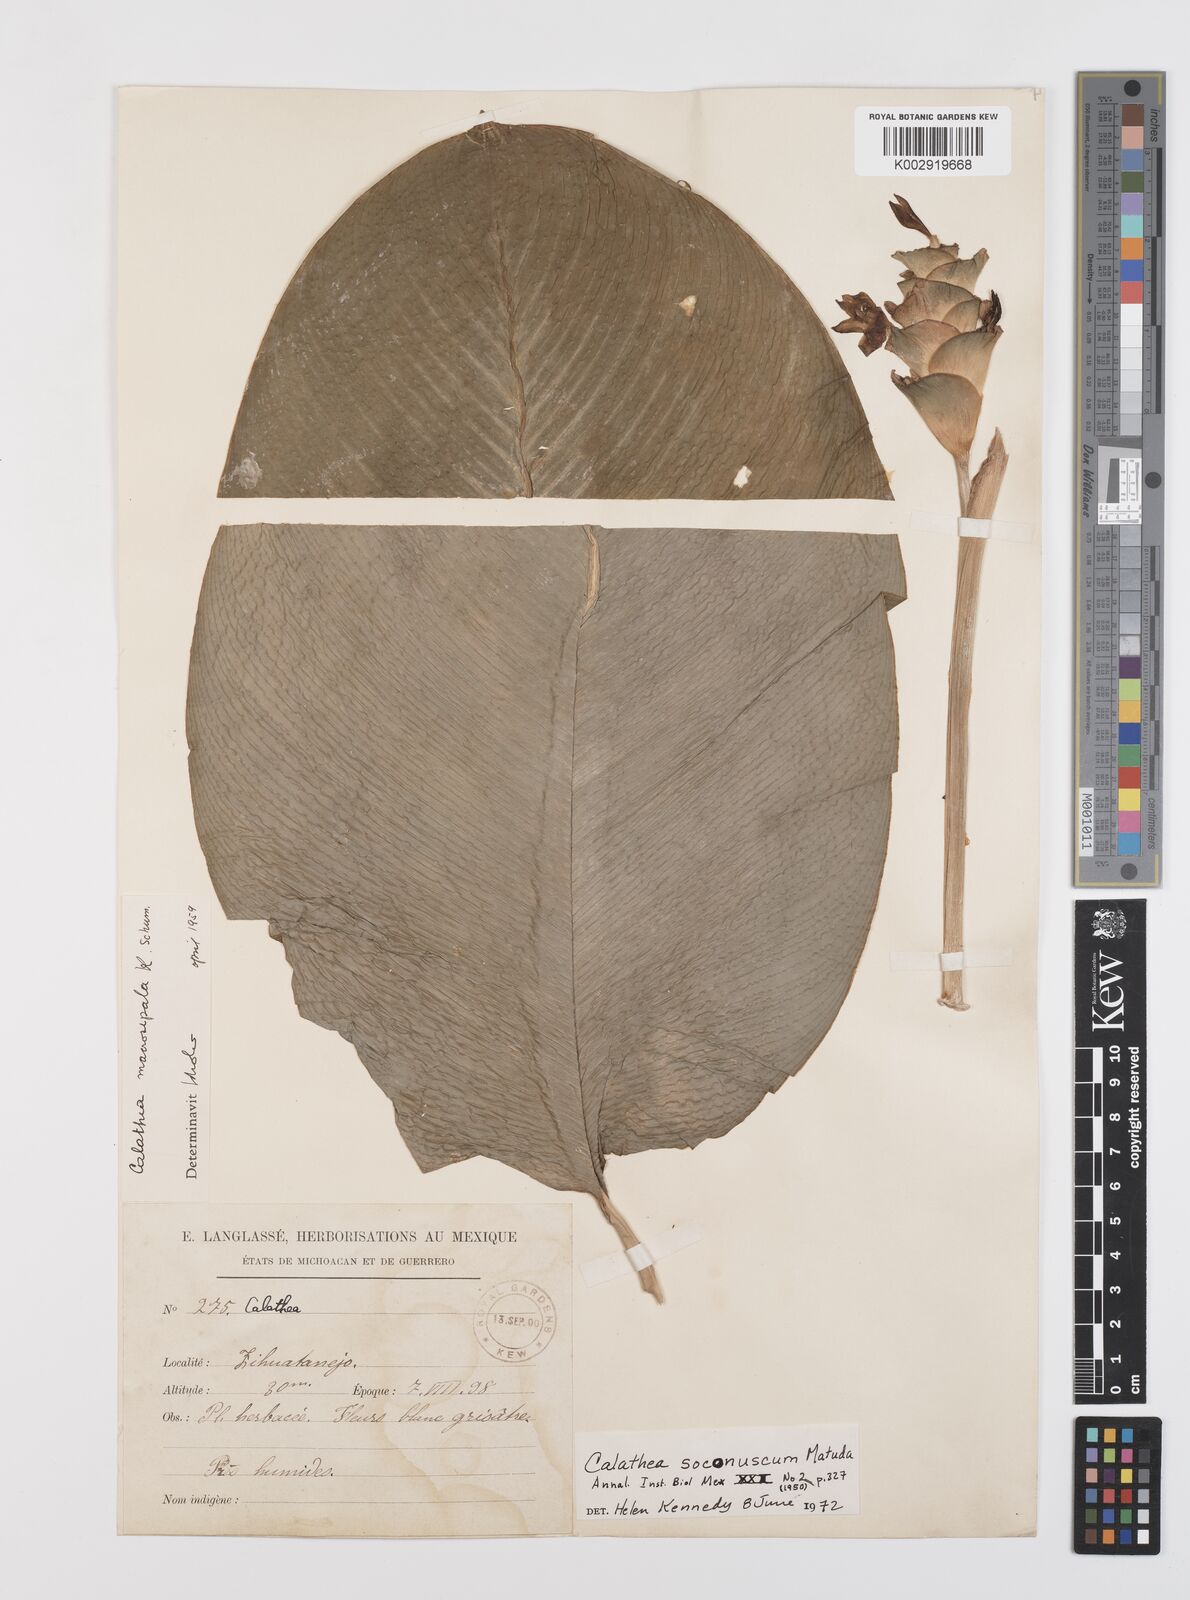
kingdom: Plantae
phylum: Tracheophyta
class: Liliopsida
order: Zingiberales
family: Marantaceae
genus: Goeppertia
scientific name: Goeppertia soconuscum
